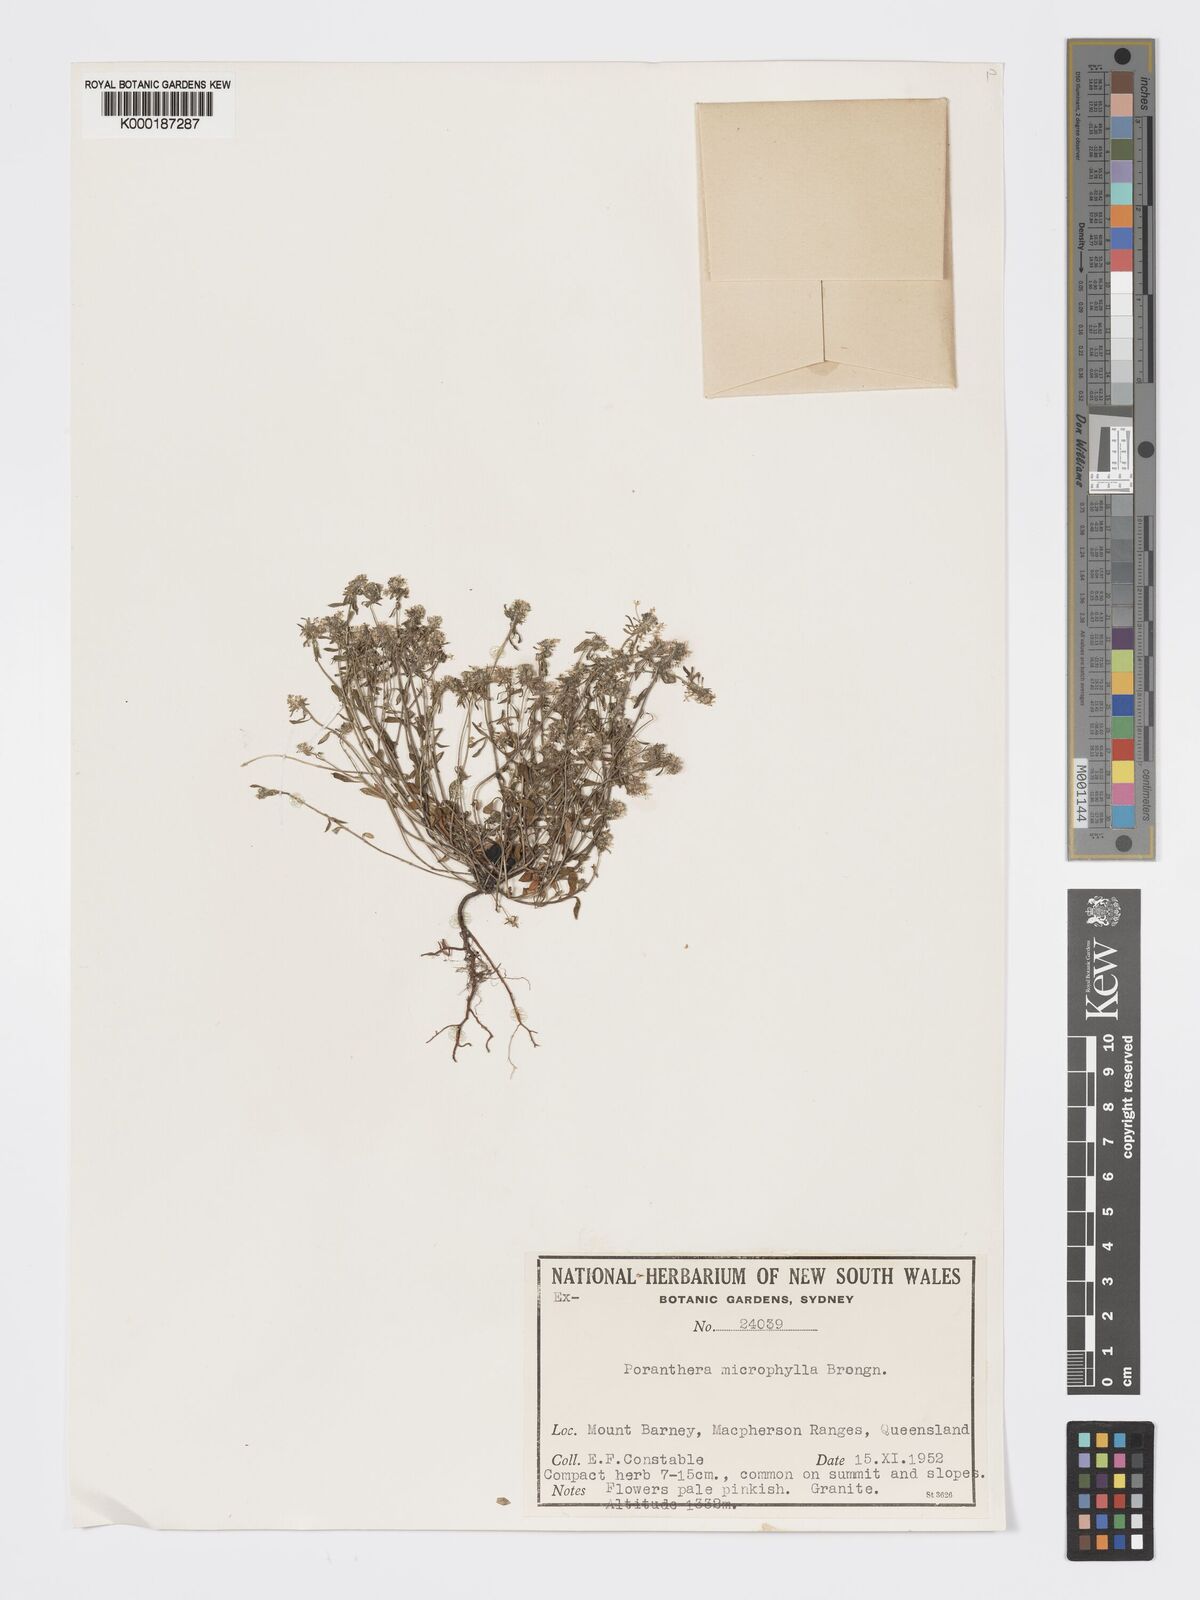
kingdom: Plantae
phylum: Tracheophyta
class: Magnoliopsida
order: Malpighiales
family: Phyllanthaceae
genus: Poranthera
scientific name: Poranthera microphylla
